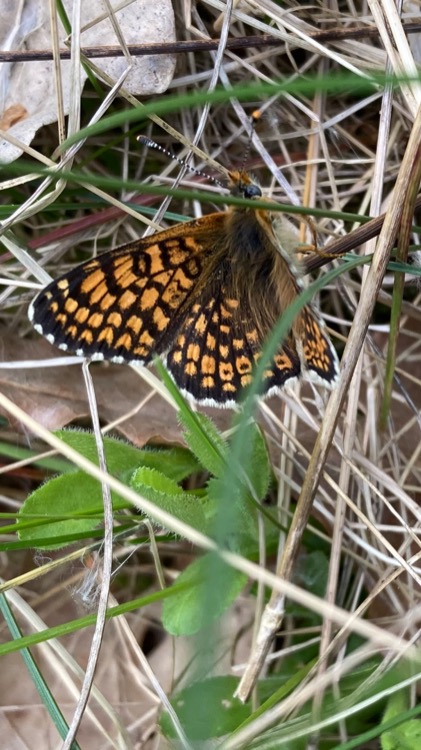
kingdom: Animalia
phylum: Arthropoda
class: Insecta
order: Lepidoptera
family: Nymphalidae
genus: Melitaea
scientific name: Melitaea cinxia
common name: Okkergul pletvinge
